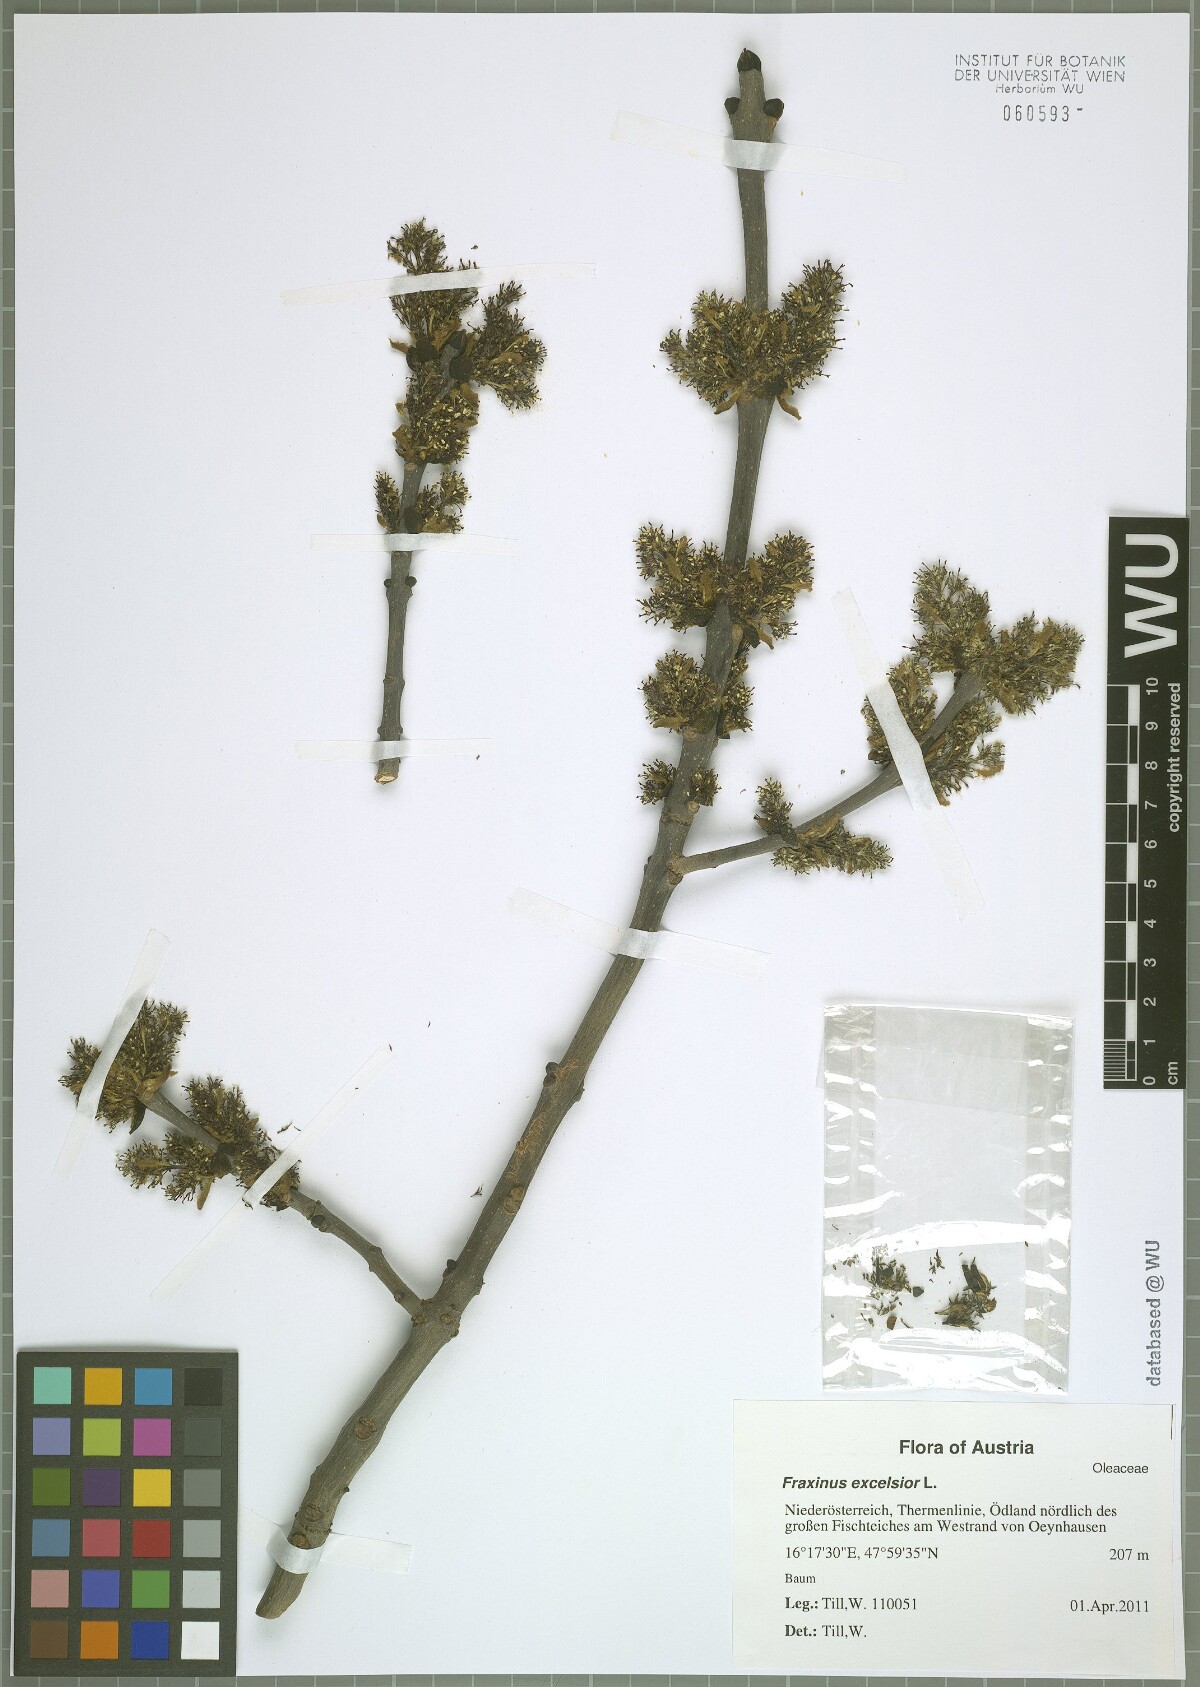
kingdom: Plantae
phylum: Tracheophyta
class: Magnoliopsida
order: Lamiales
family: Oleaceae
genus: Fraxinus
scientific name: Fraxinus excelsior
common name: European ash
